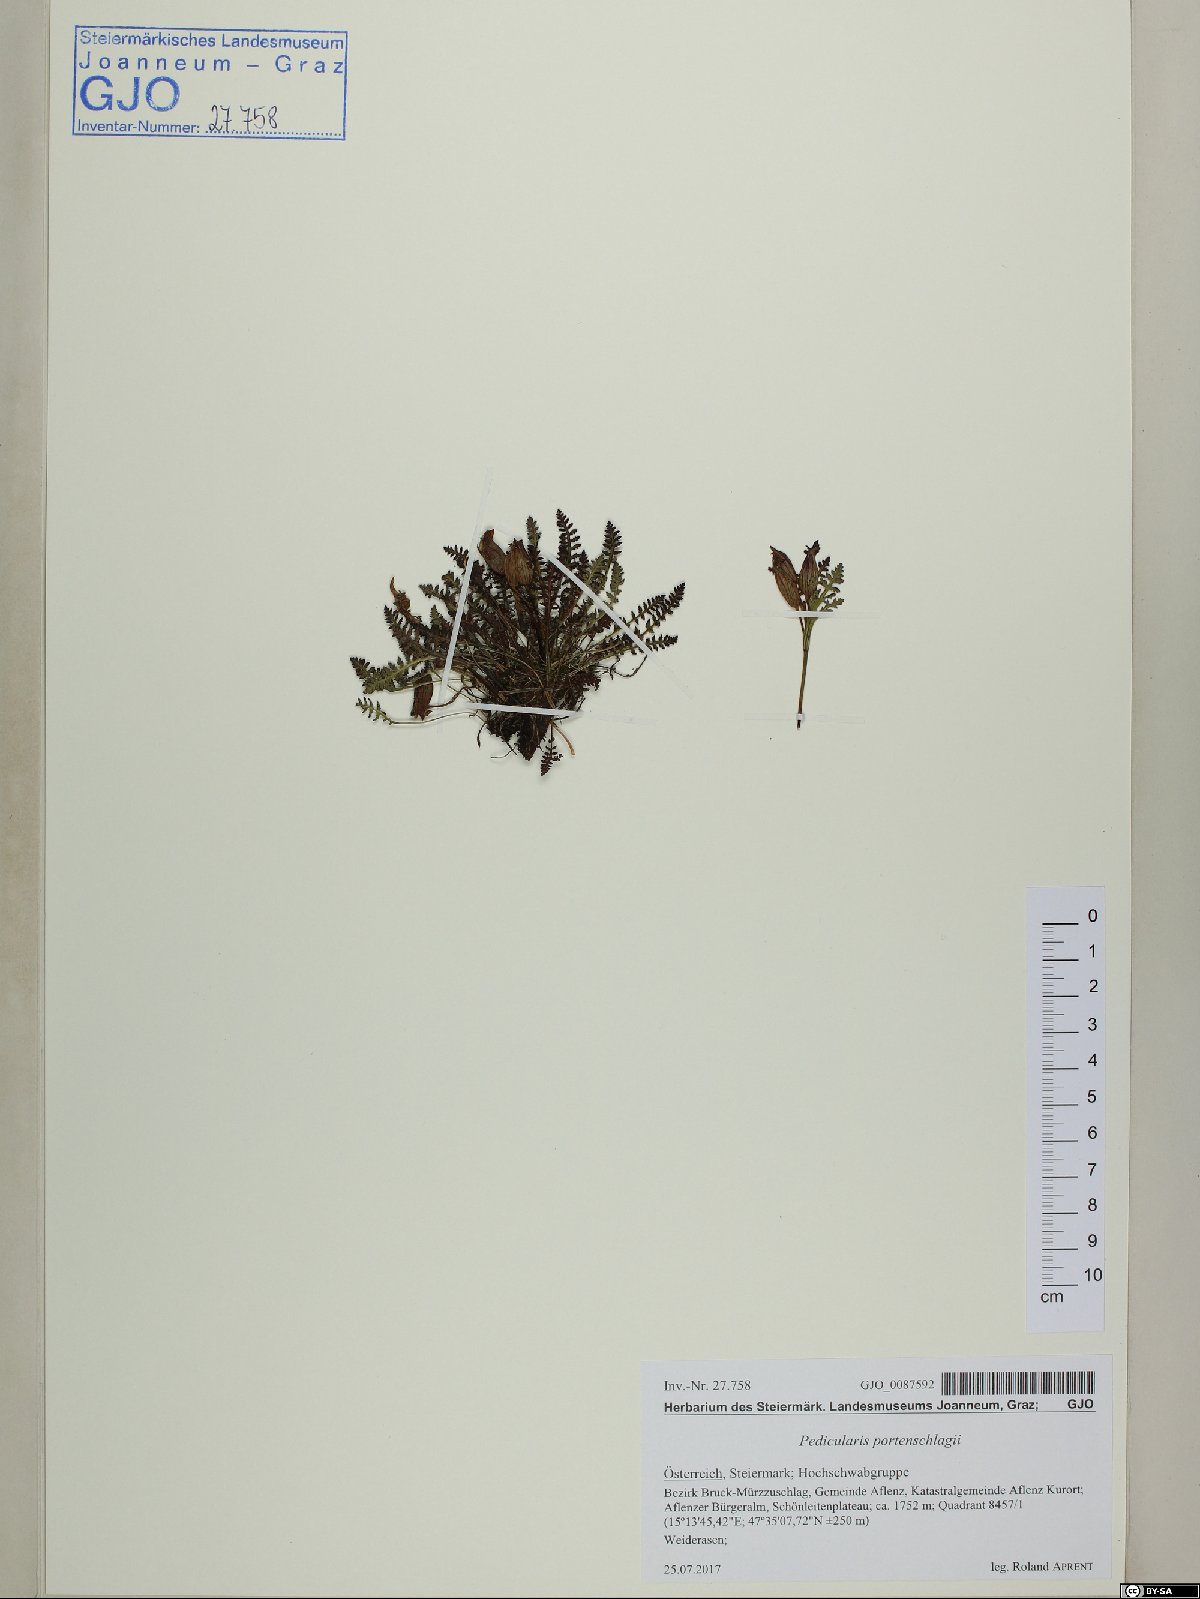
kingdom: Plantae
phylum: Tracheophyta
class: Magnoliopsida
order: Lamiales
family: Orobanchaceae
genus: Pedicularis
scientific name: Pedicularis portenschlagii
